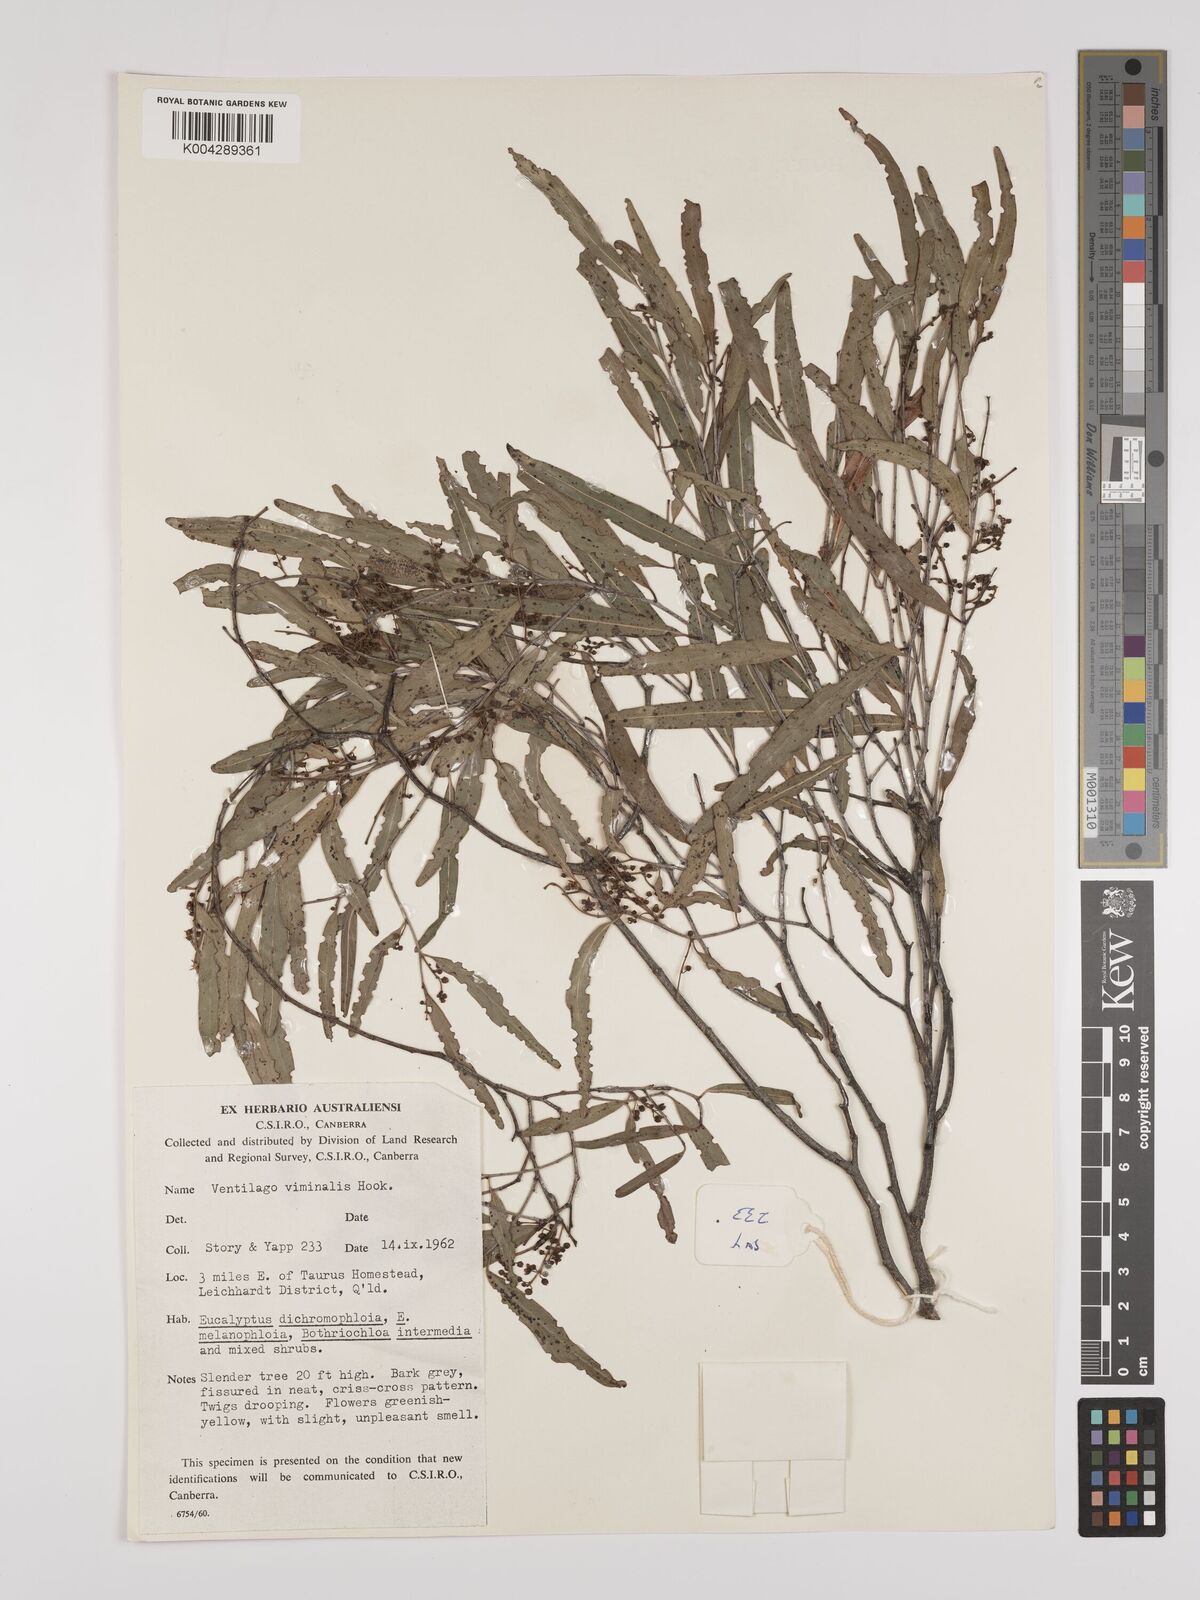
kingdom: Plantae
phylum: Tracheophyta
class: Magnoliopsida
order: Rosales
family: Rhamnaceae
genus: Ventilago
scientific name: Ventilago viminalis
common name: Medicine-bark
